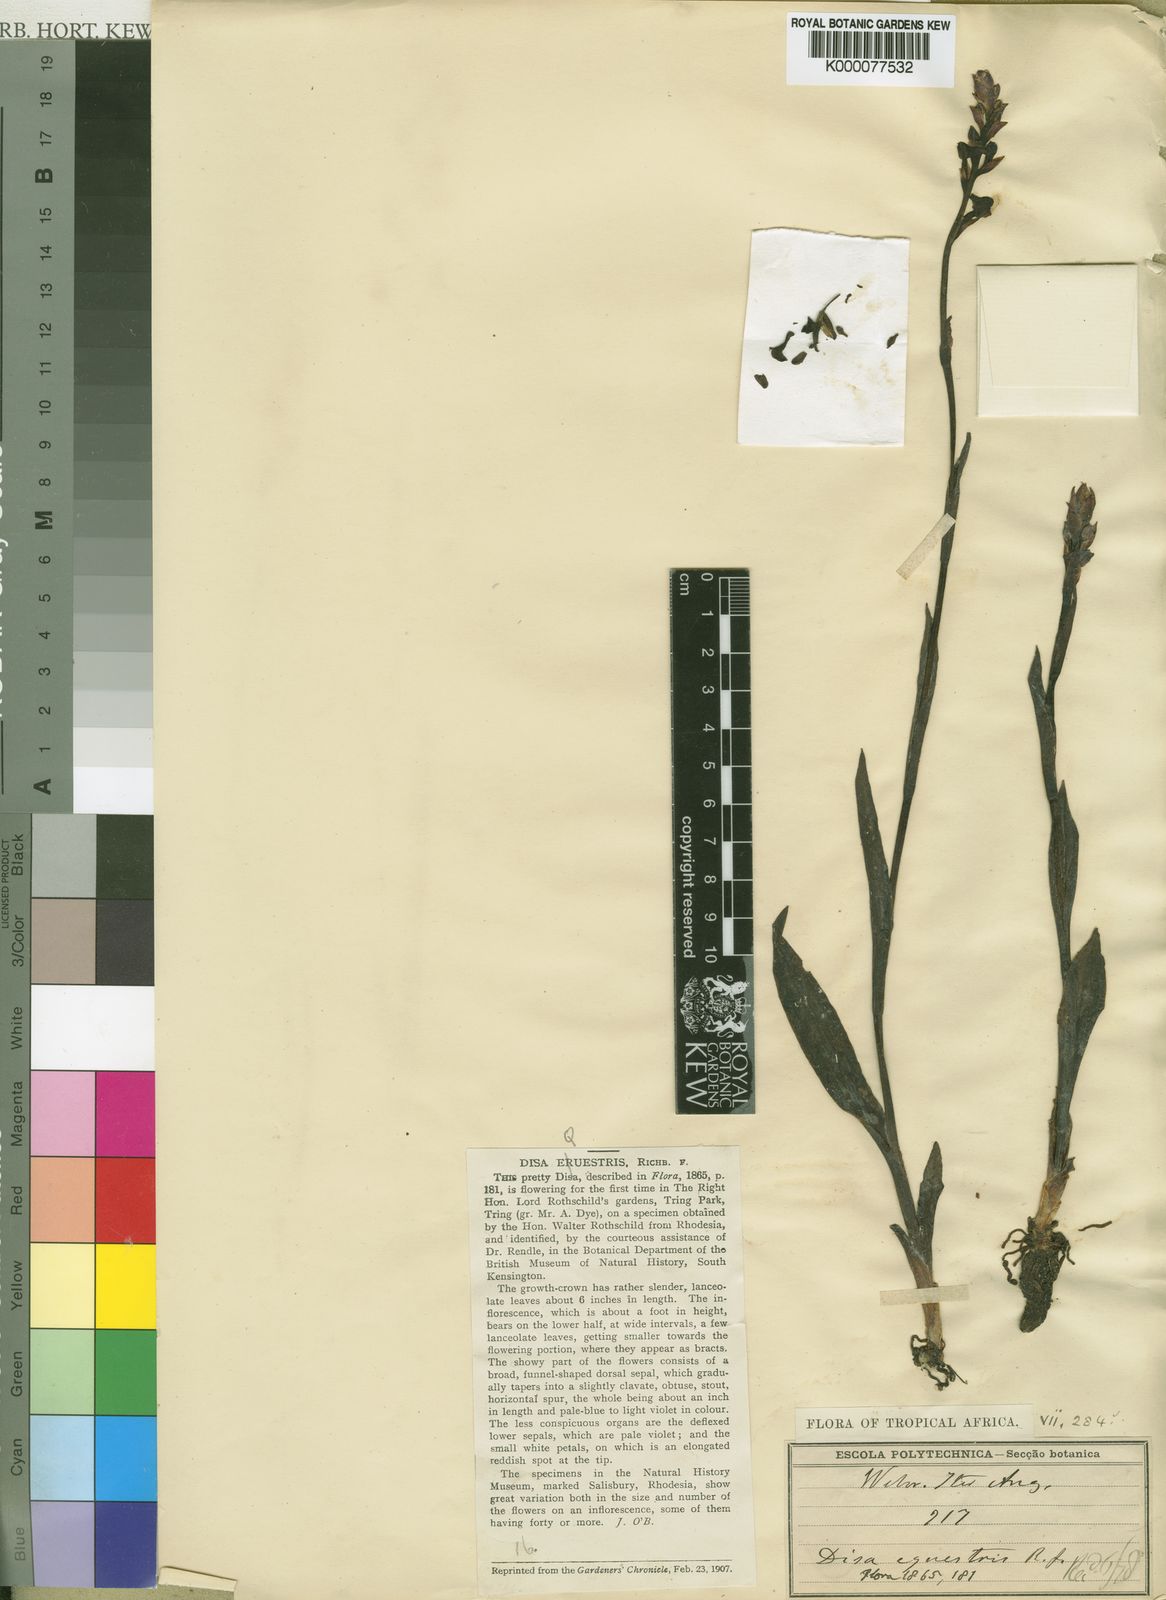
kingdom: Plantae
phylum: Tracheophyta
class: Liliopsida
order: Asparagales
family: Orchidaceae
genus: Disa
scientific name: Disa equestris
